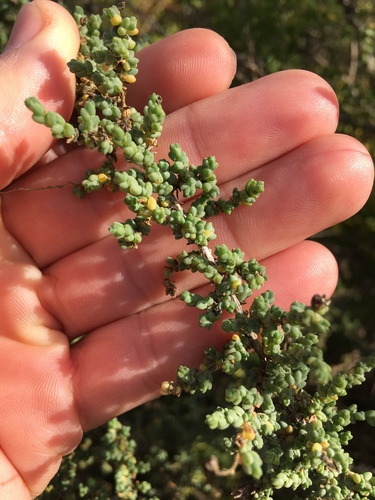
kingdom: Plantae
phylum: Tracheophyta
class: Magnoliopsida
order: Caryophyllales
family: Amaranthaceae
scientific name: Amaranthaceae
